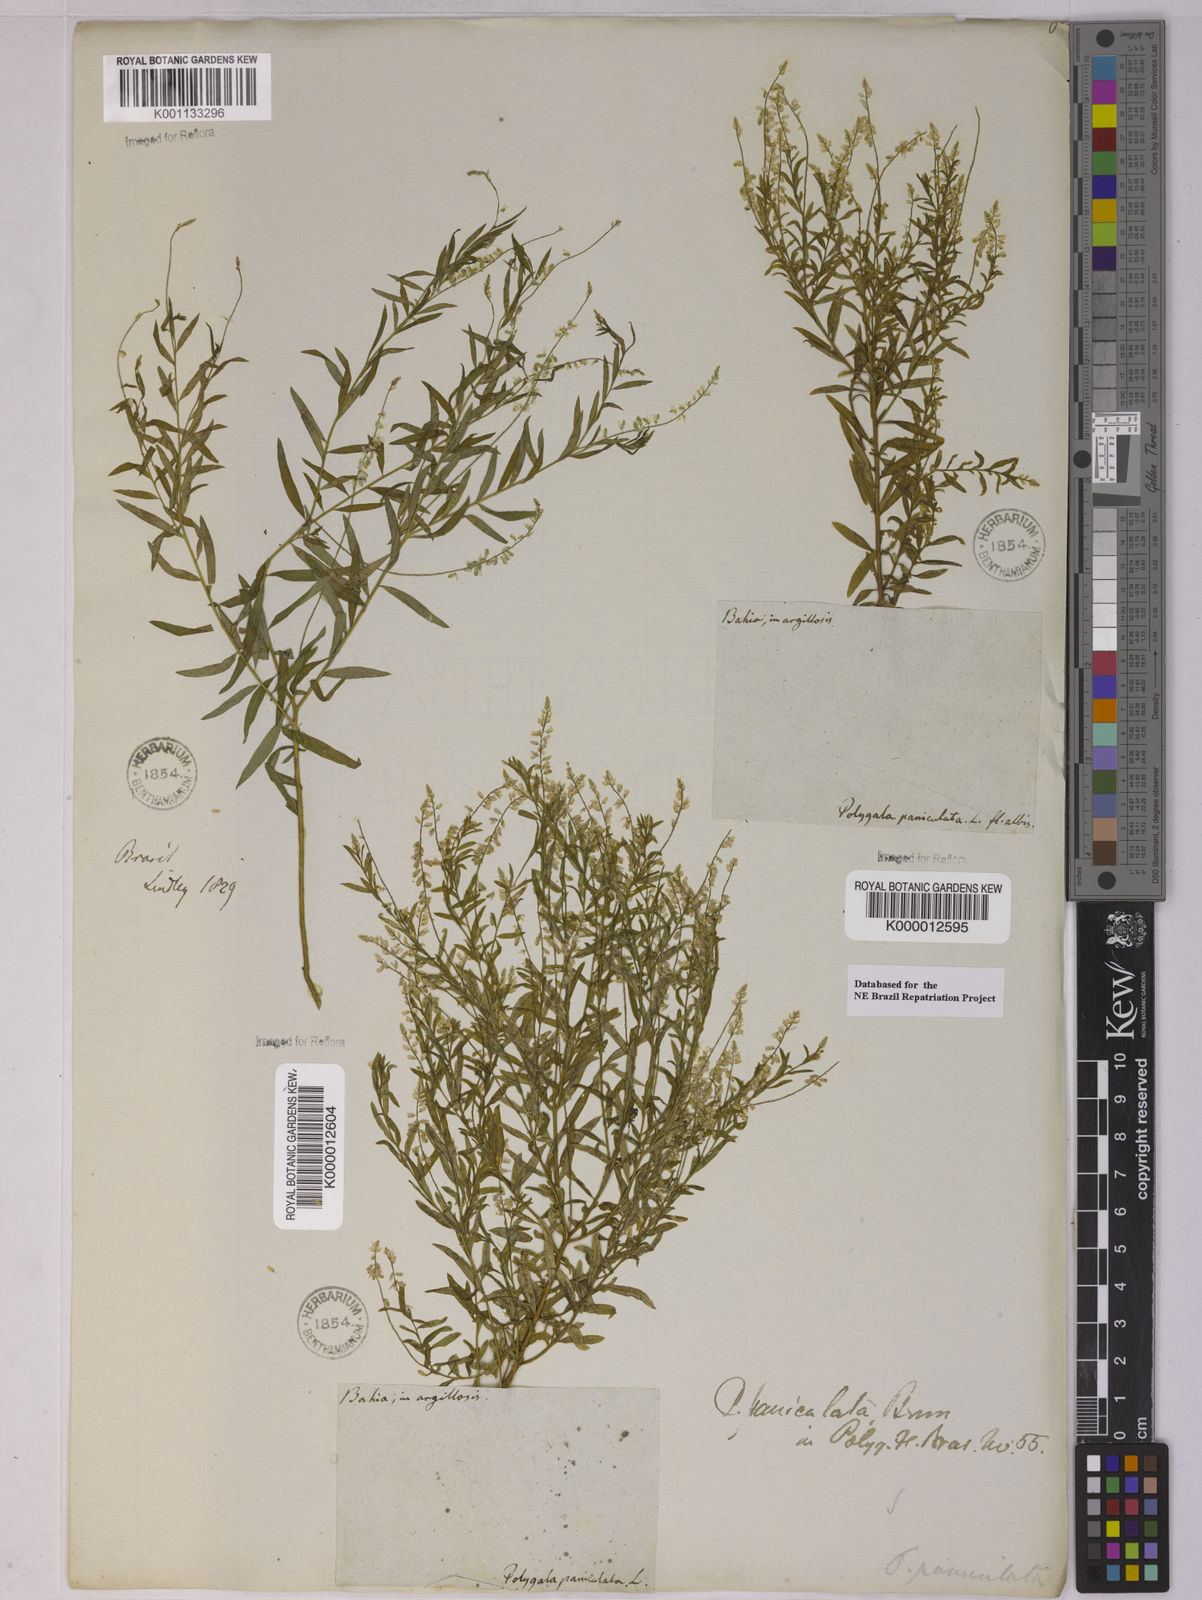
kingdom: Plantae
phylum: Tracheophyta
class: Magnoliopsida
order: Fabales
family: Polygalaceae
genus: Polygala
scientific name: Polygala paniculata
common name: Orosne
